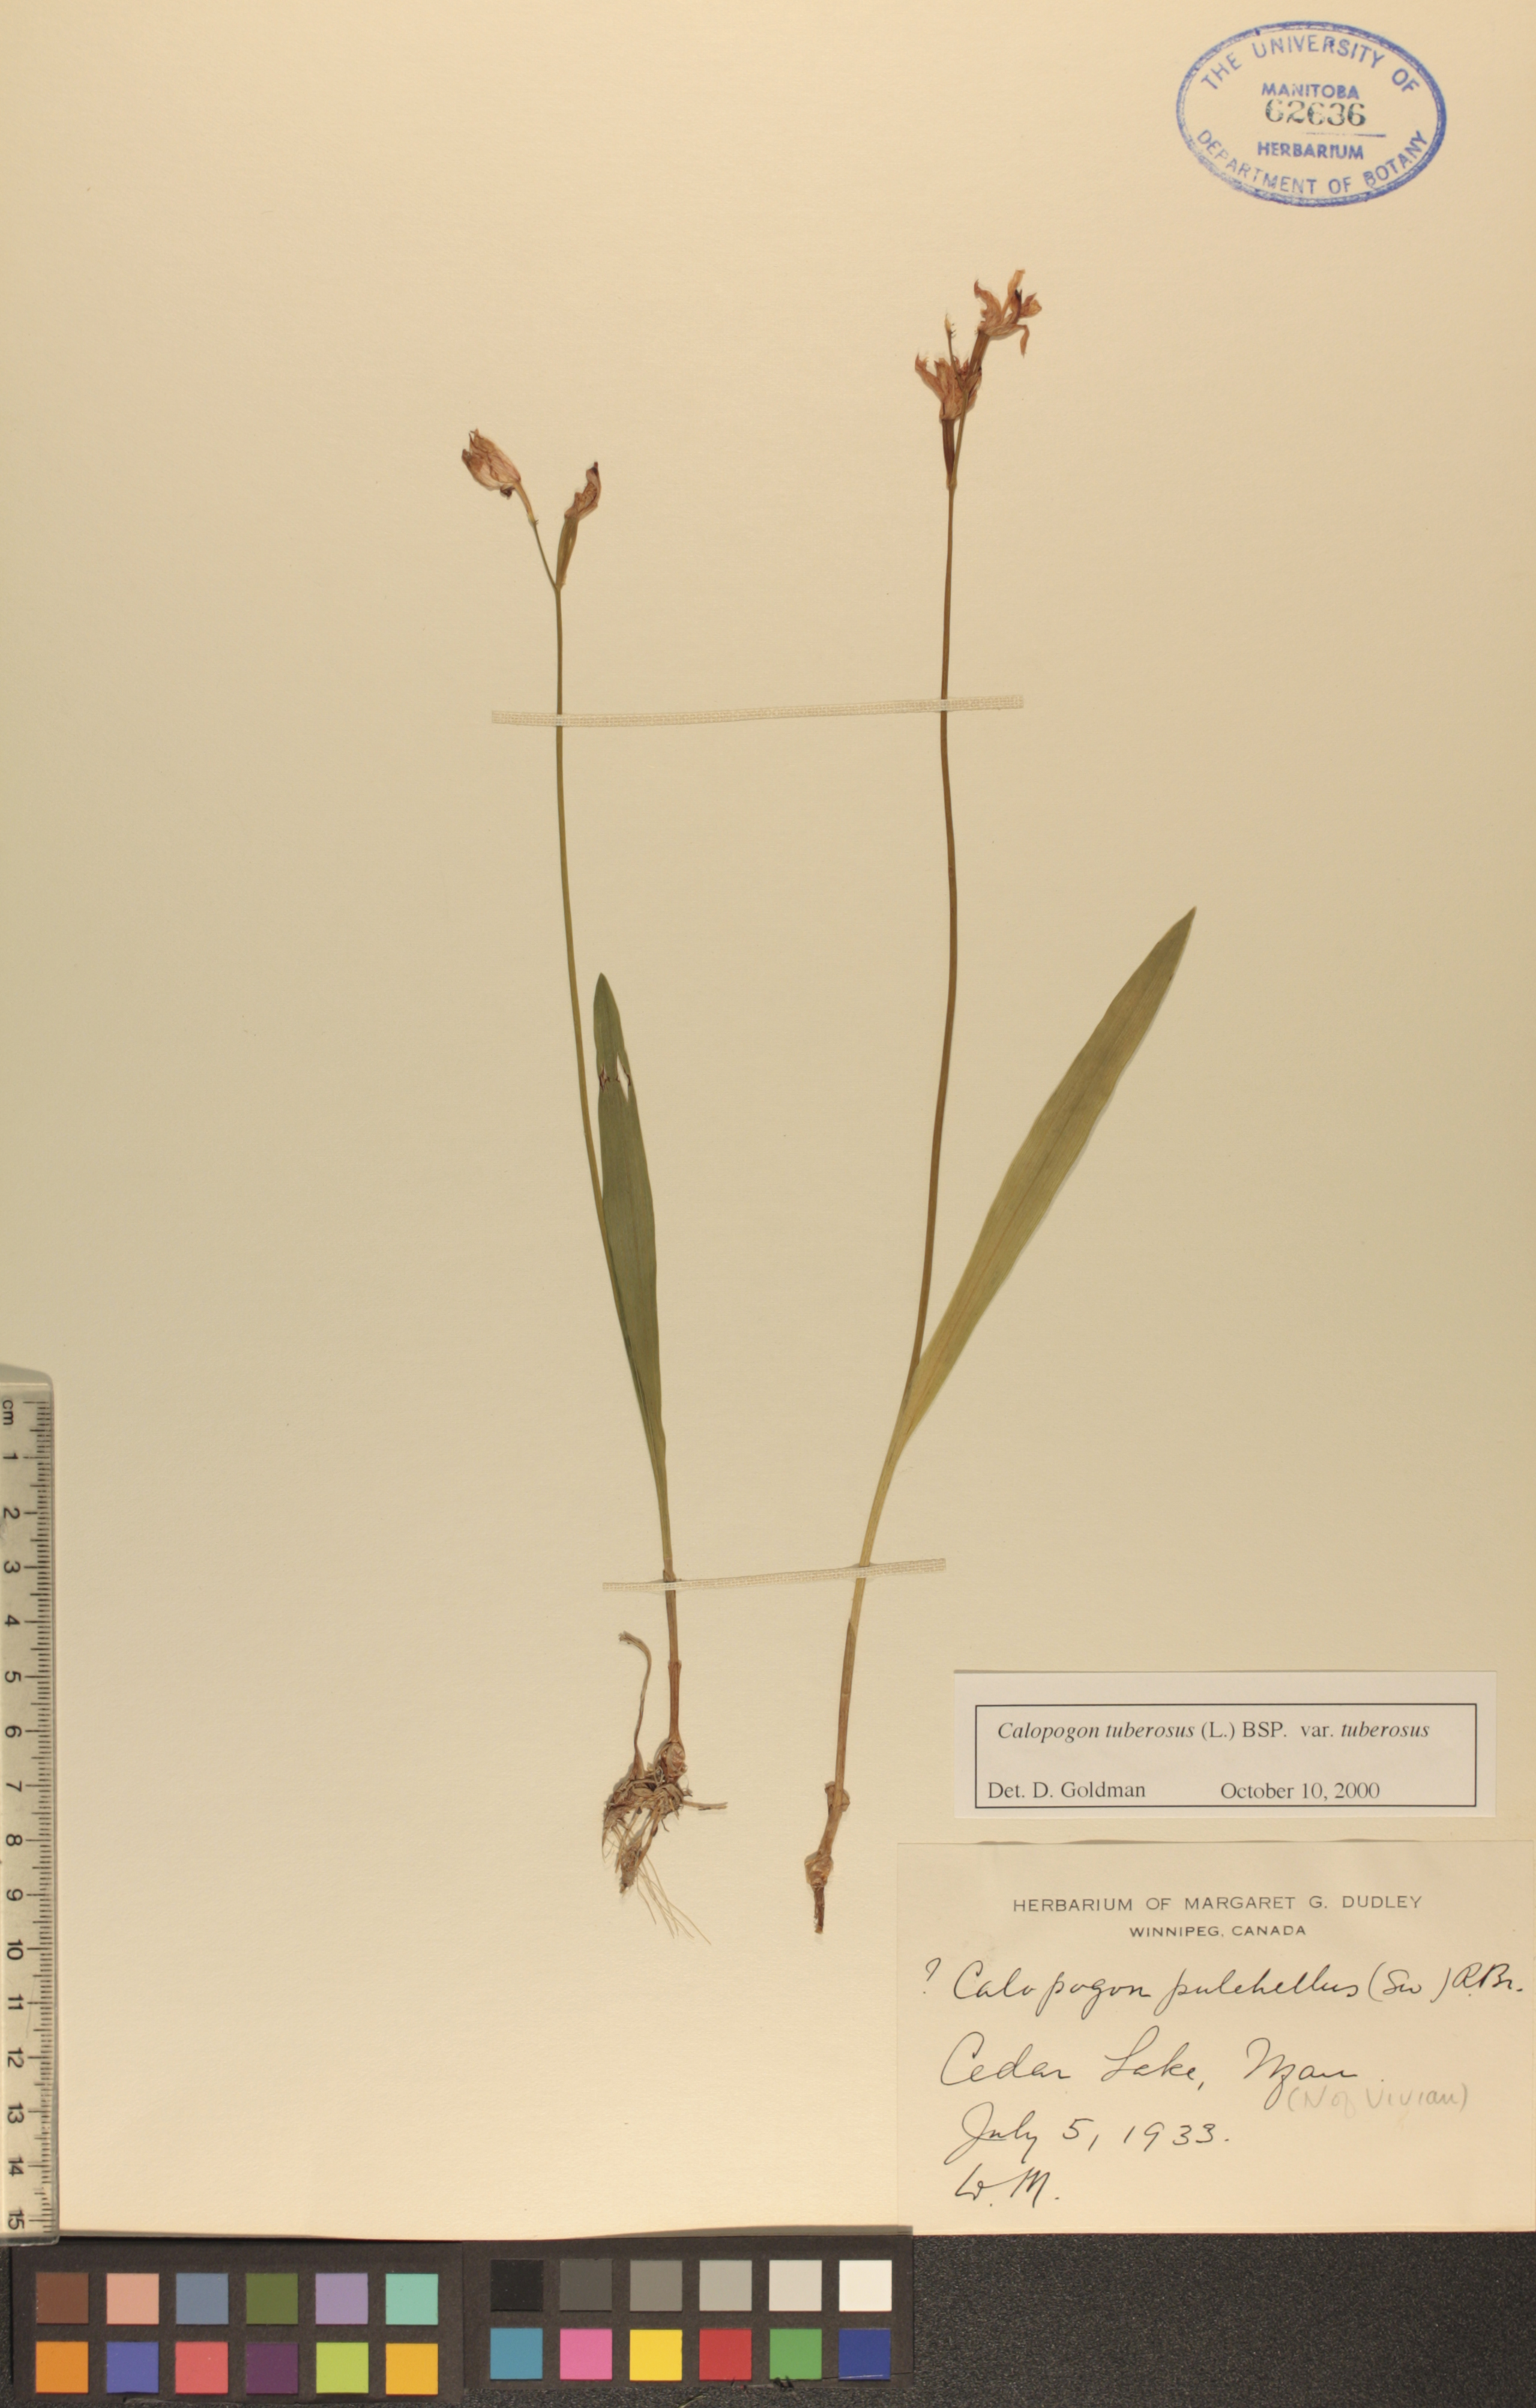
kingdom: Plantae
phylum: Tracheophyta
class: Liliopsida
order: Asparagales
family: Orchidaceae
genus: Calopogon
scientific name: Calopogon tuberosus
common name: Grass-pink
